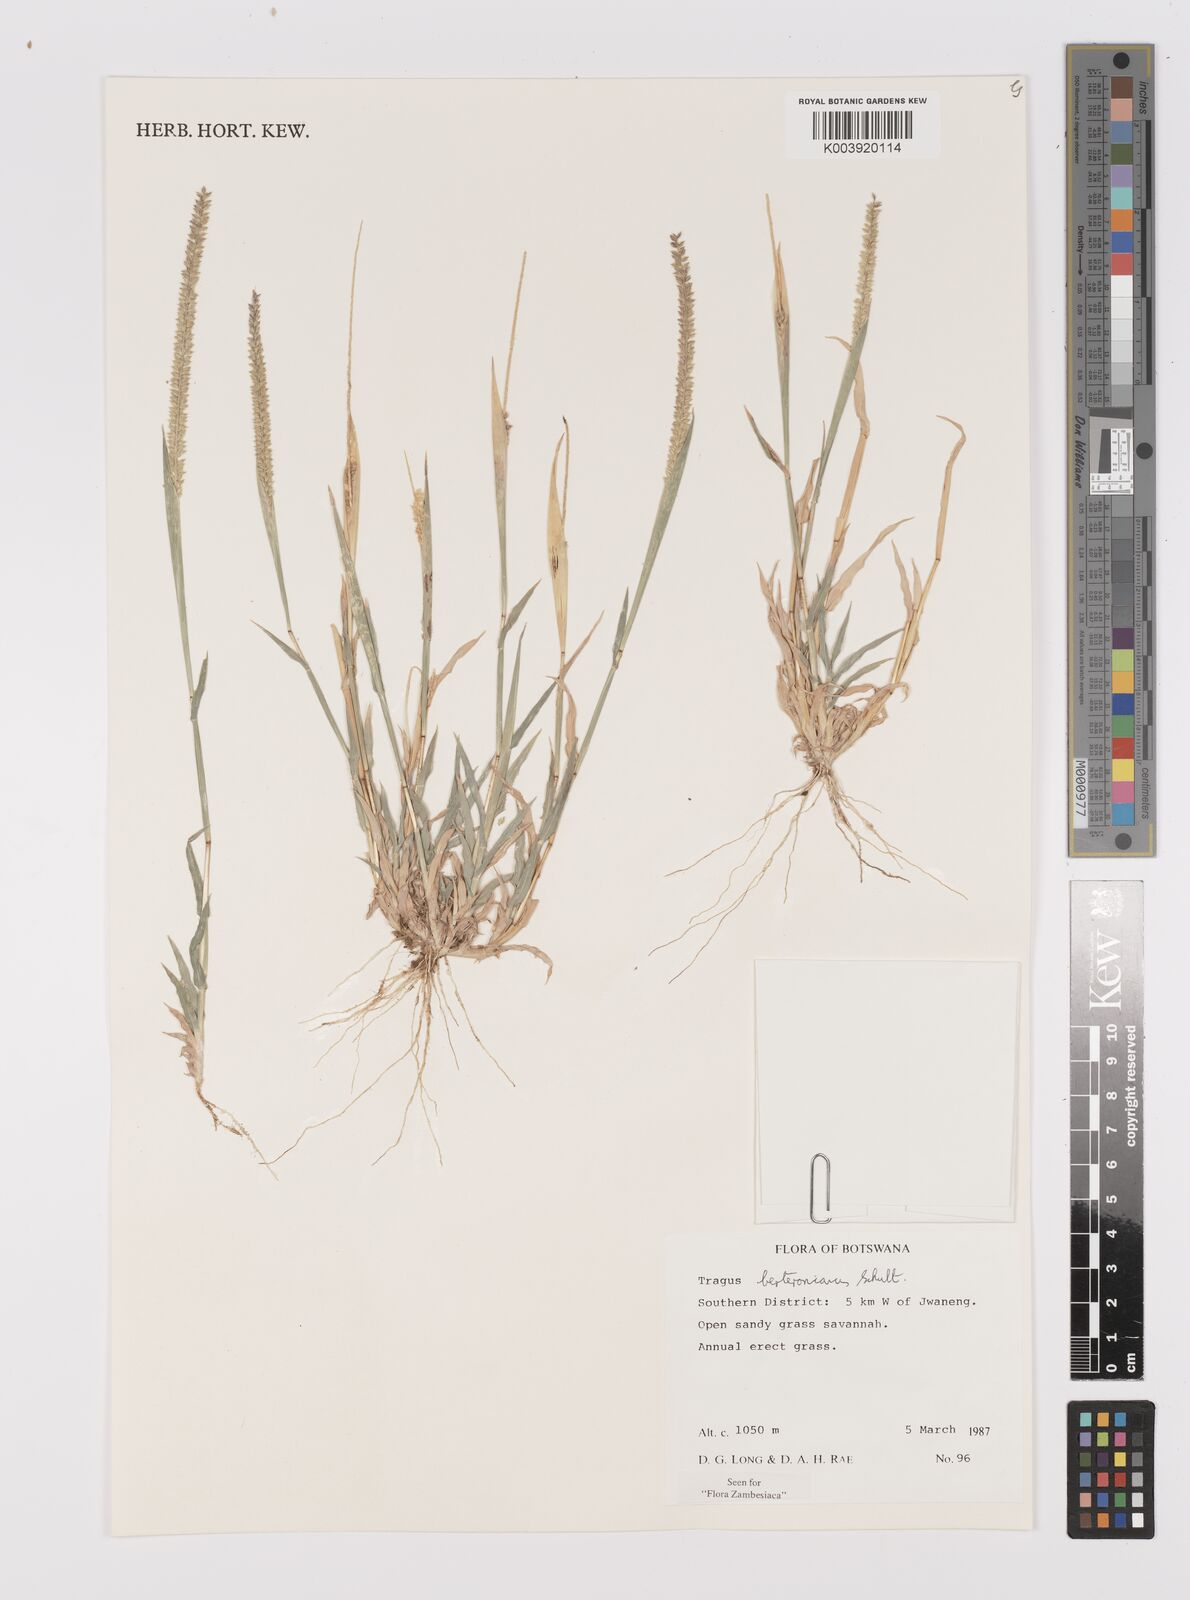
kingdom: Plantae
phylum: Tracheophyta
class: Liliopsida
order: Poales
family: Poaceae
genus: Tragus
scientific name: Tragus berteronianus
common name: African bur-grass
